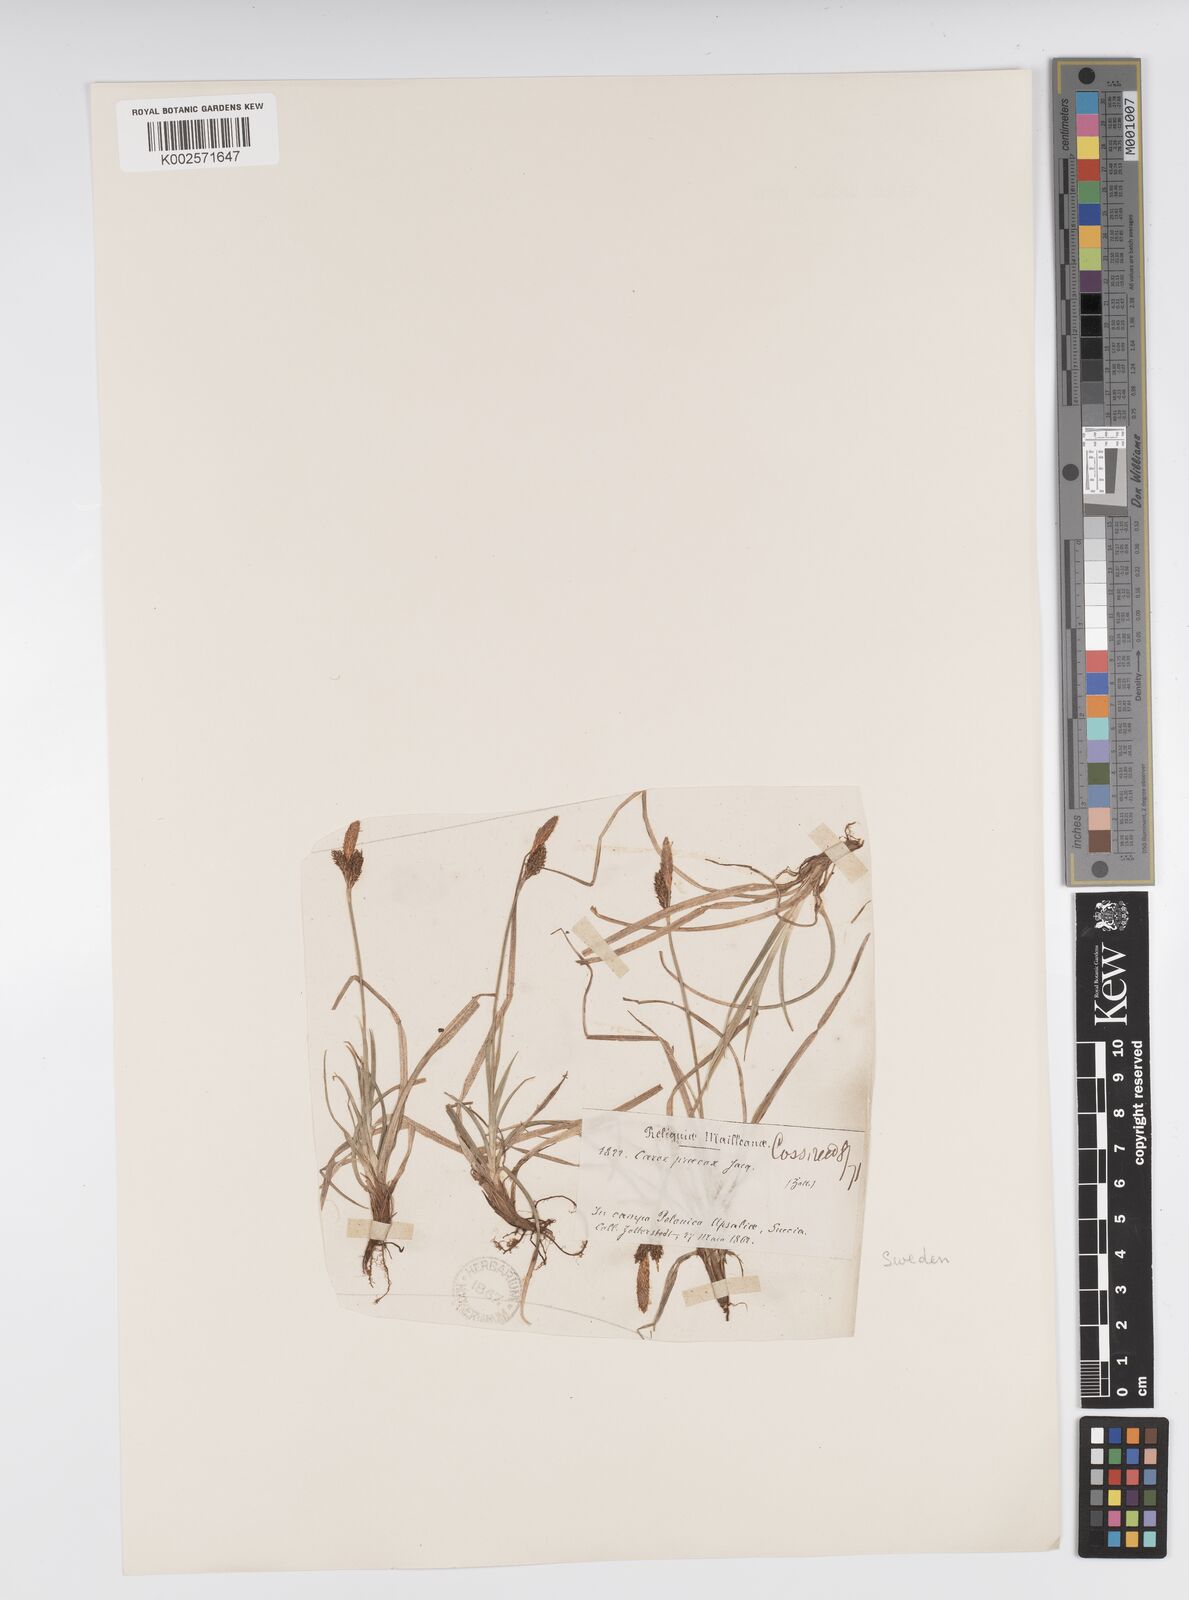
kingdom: Plantae
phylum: Tracheophyta
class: Liliopsida
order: Poales
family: Cyperaceae
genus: Carex
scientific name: Carex caryophyllea
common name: Spring sedge
